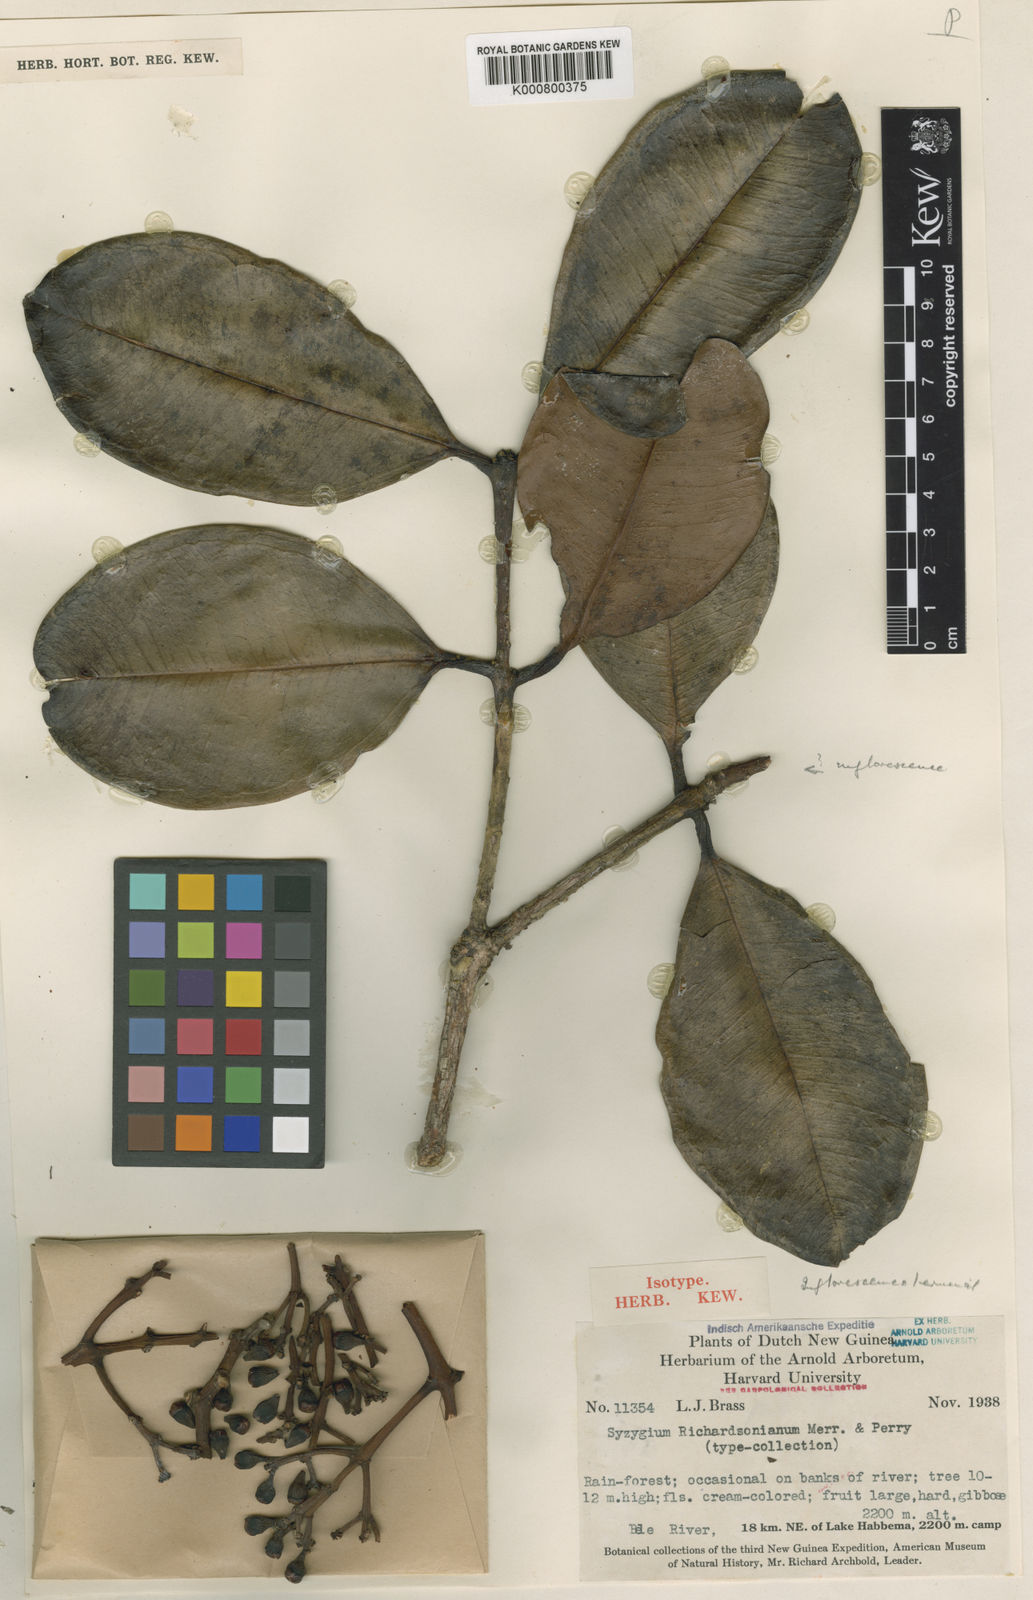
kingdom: Plantae
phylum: Tracheophyta
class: Magnoliopsida
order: Myrtales
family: Myrtaceae
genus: Syzygium
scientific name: Syzygium richardsonianum
